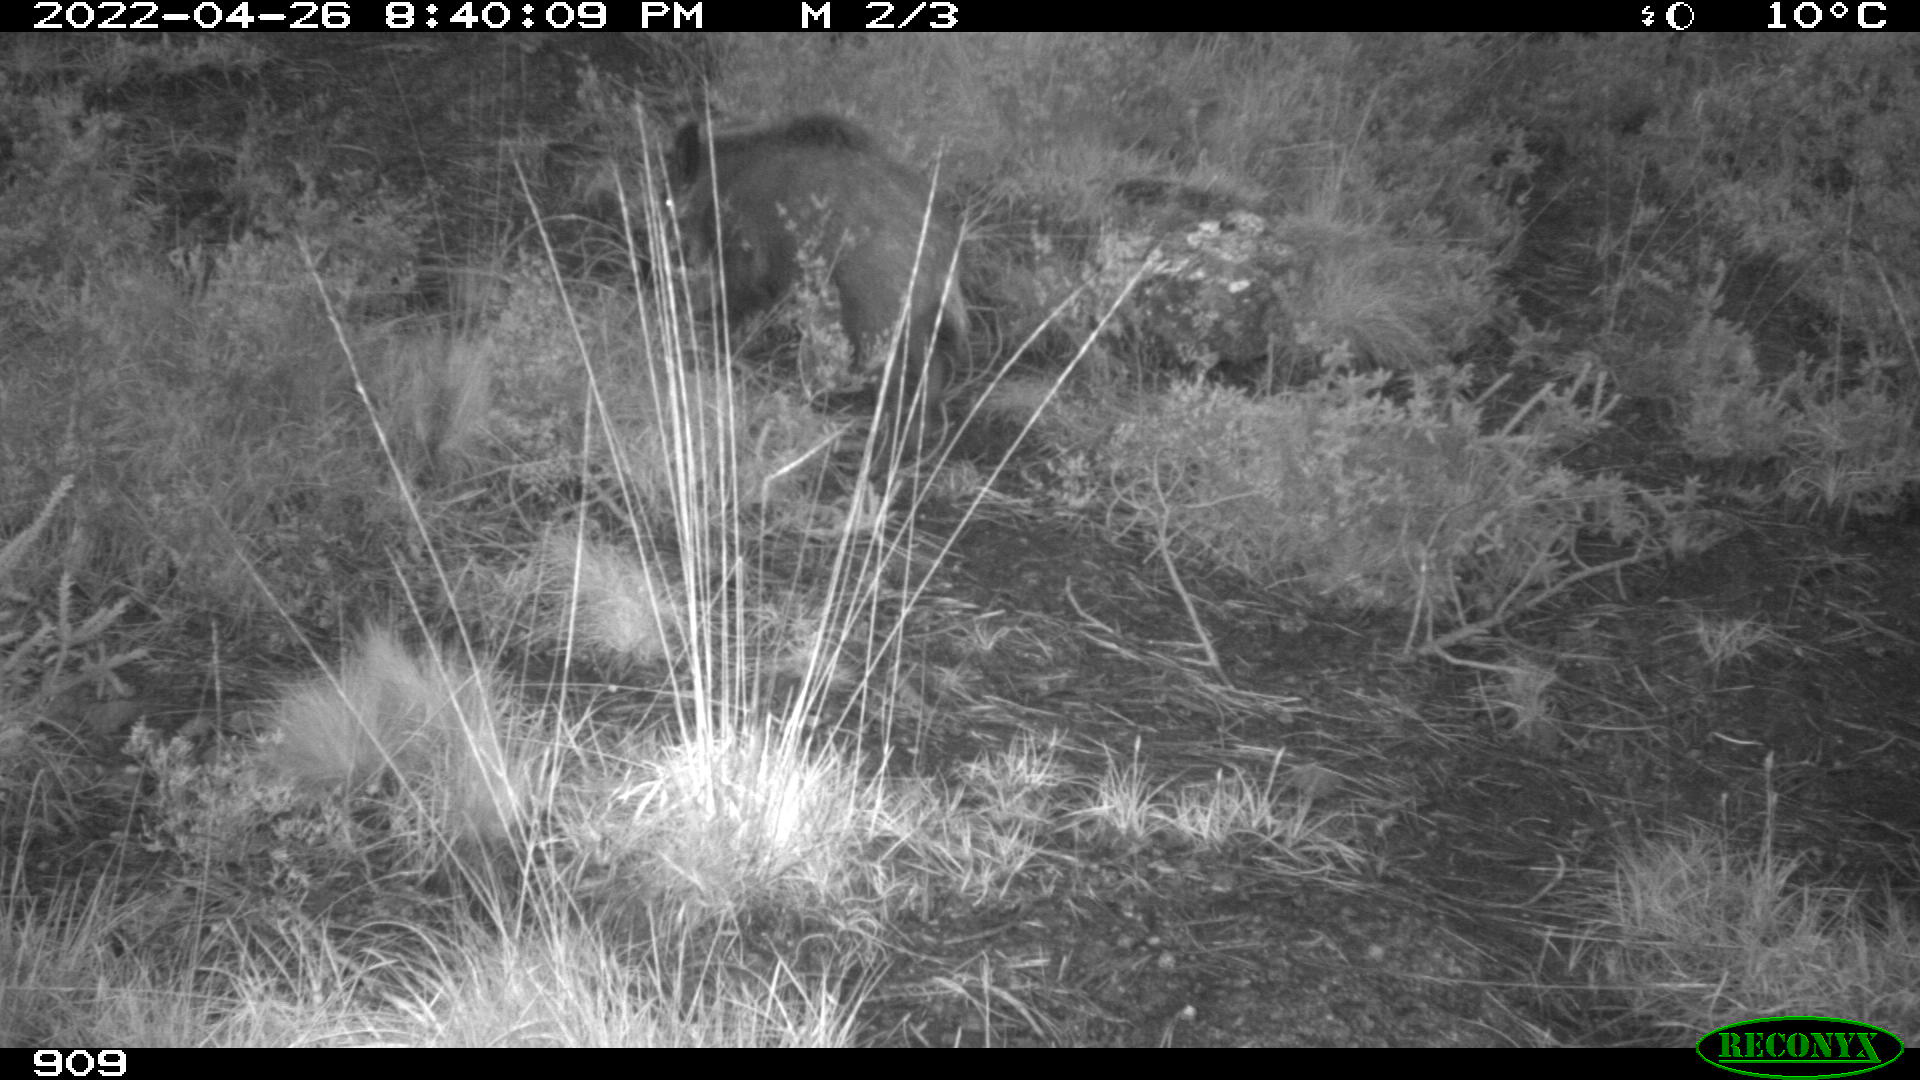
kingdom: Animalia
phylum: Chordata
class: Mammalia
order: Artiodactyla
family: Suidae
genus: Sus
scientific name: Sus scrofa
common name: Wild boar
